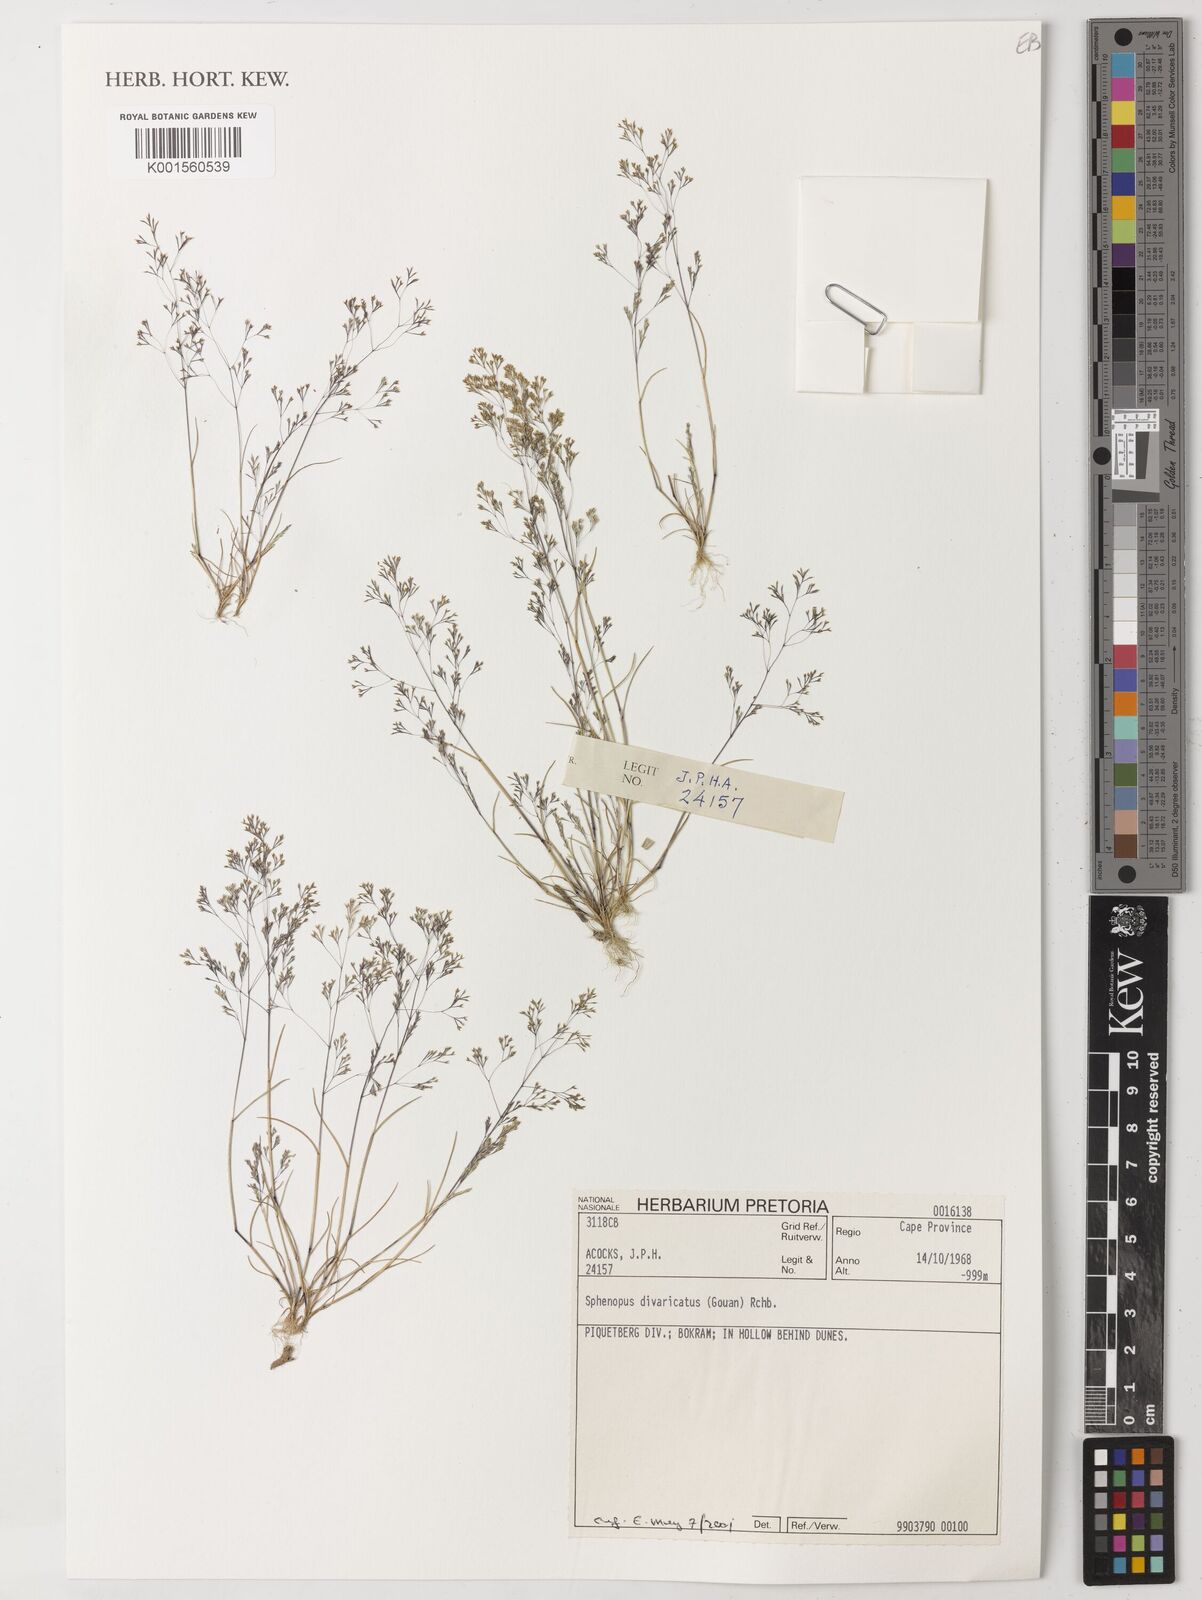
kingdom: Plantae
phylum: Tracheophyta
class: Liliopsida
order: Poales
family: Poaceae
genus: Sphenopus
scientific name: Sphenopus divaricatus
